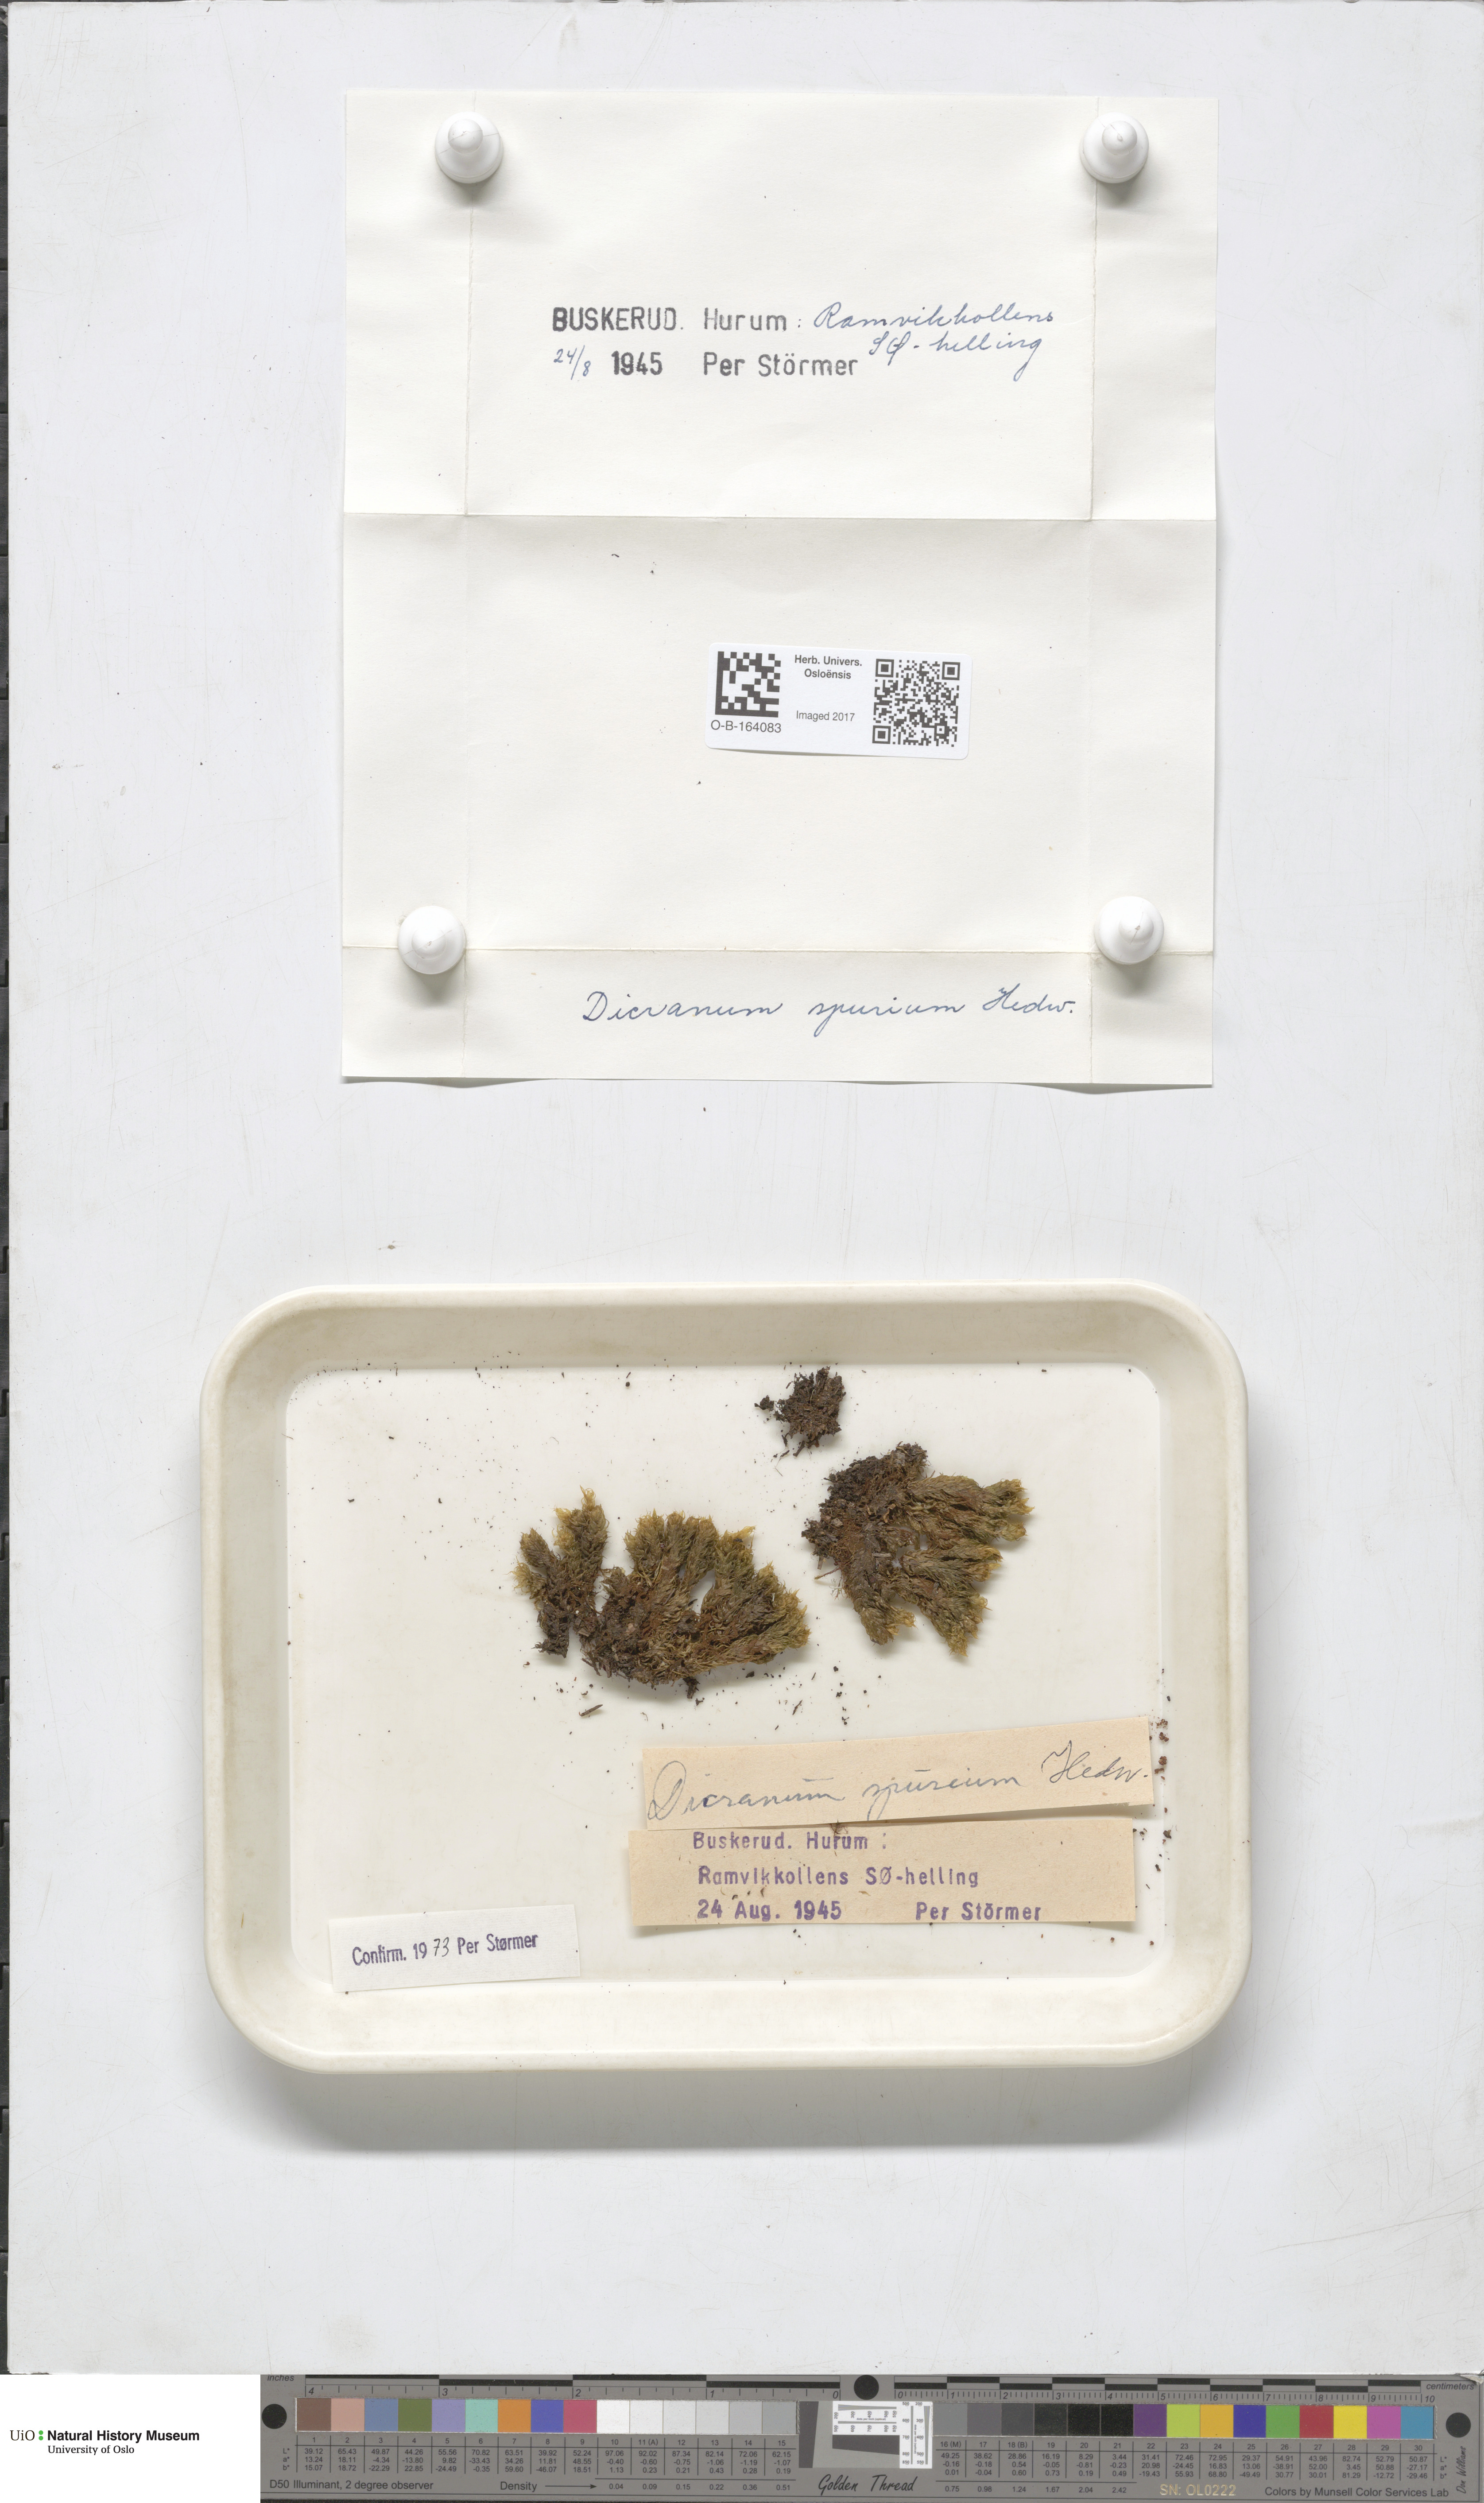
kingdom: Plantae
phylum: Bryophyta
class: Bryopsida
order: Dicranales
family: Dicranaceae
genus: Dicranum
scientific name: Dicranum spurium
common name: Spurred broom moss
